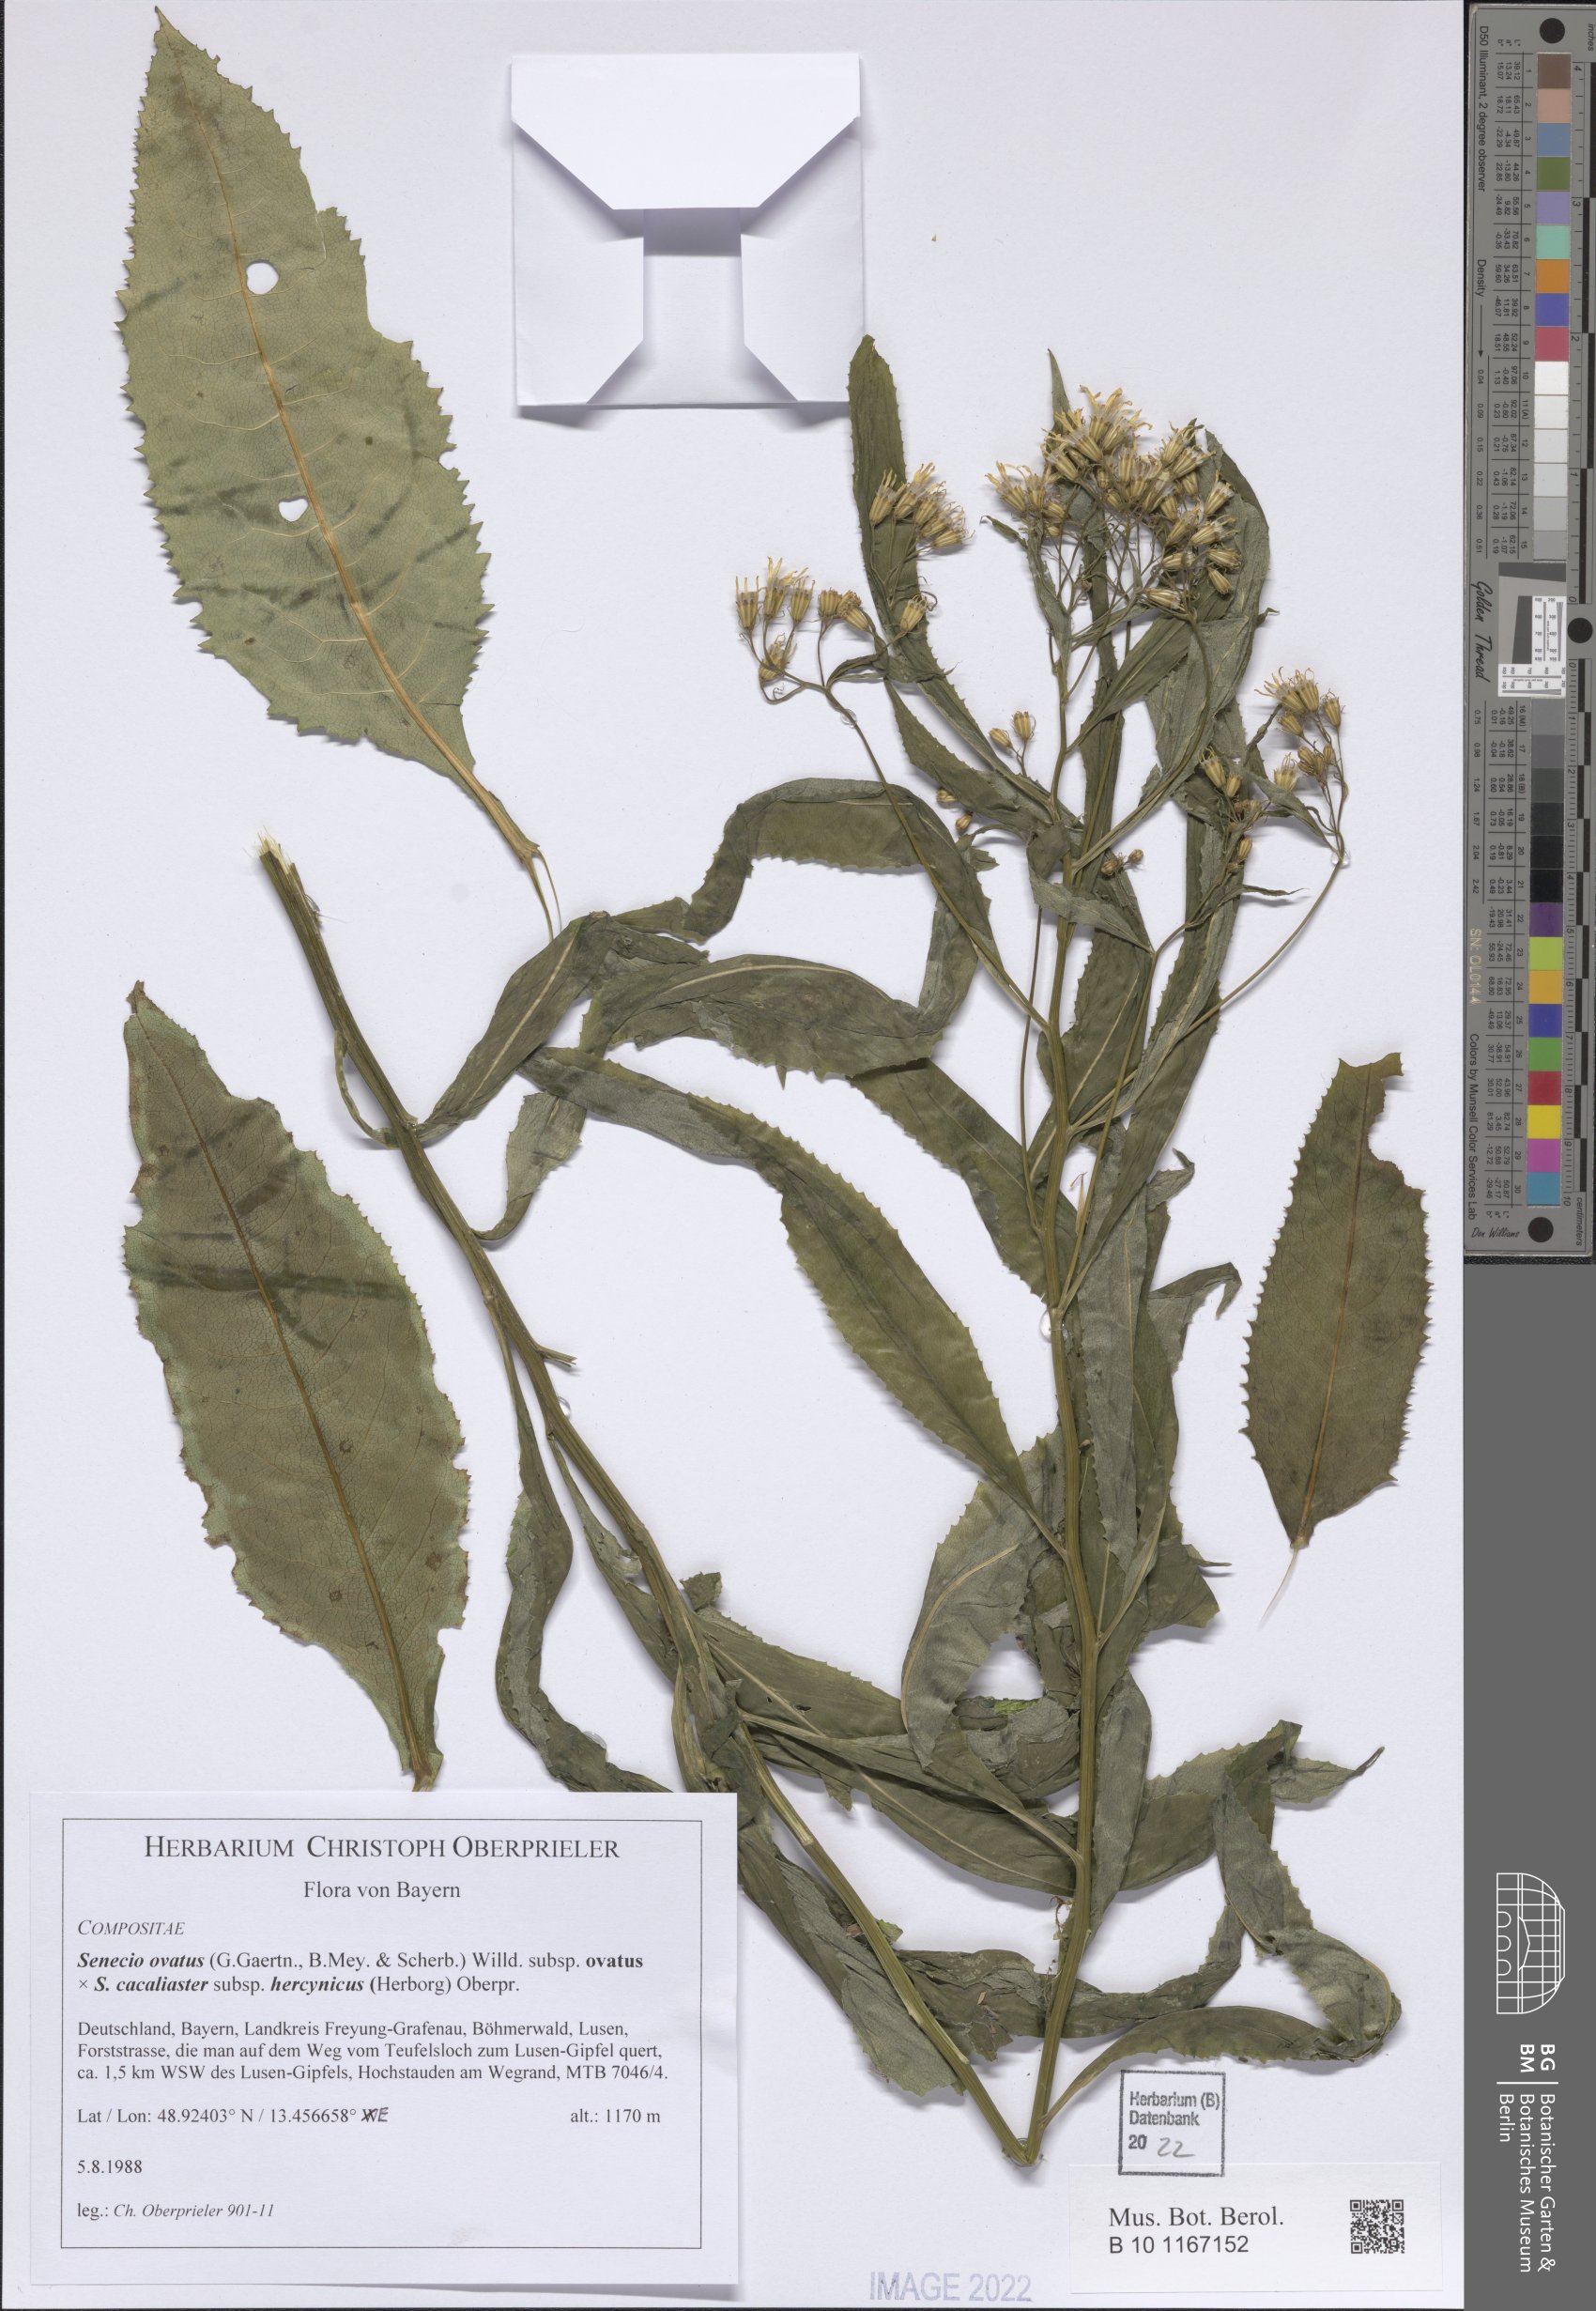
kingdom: Plantae
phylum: Tracheophyta
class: Magnoliopsida
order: Asterales
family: Asteraceae
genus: Senecio
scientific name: Senecio ovatus
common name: Wood ragwort
